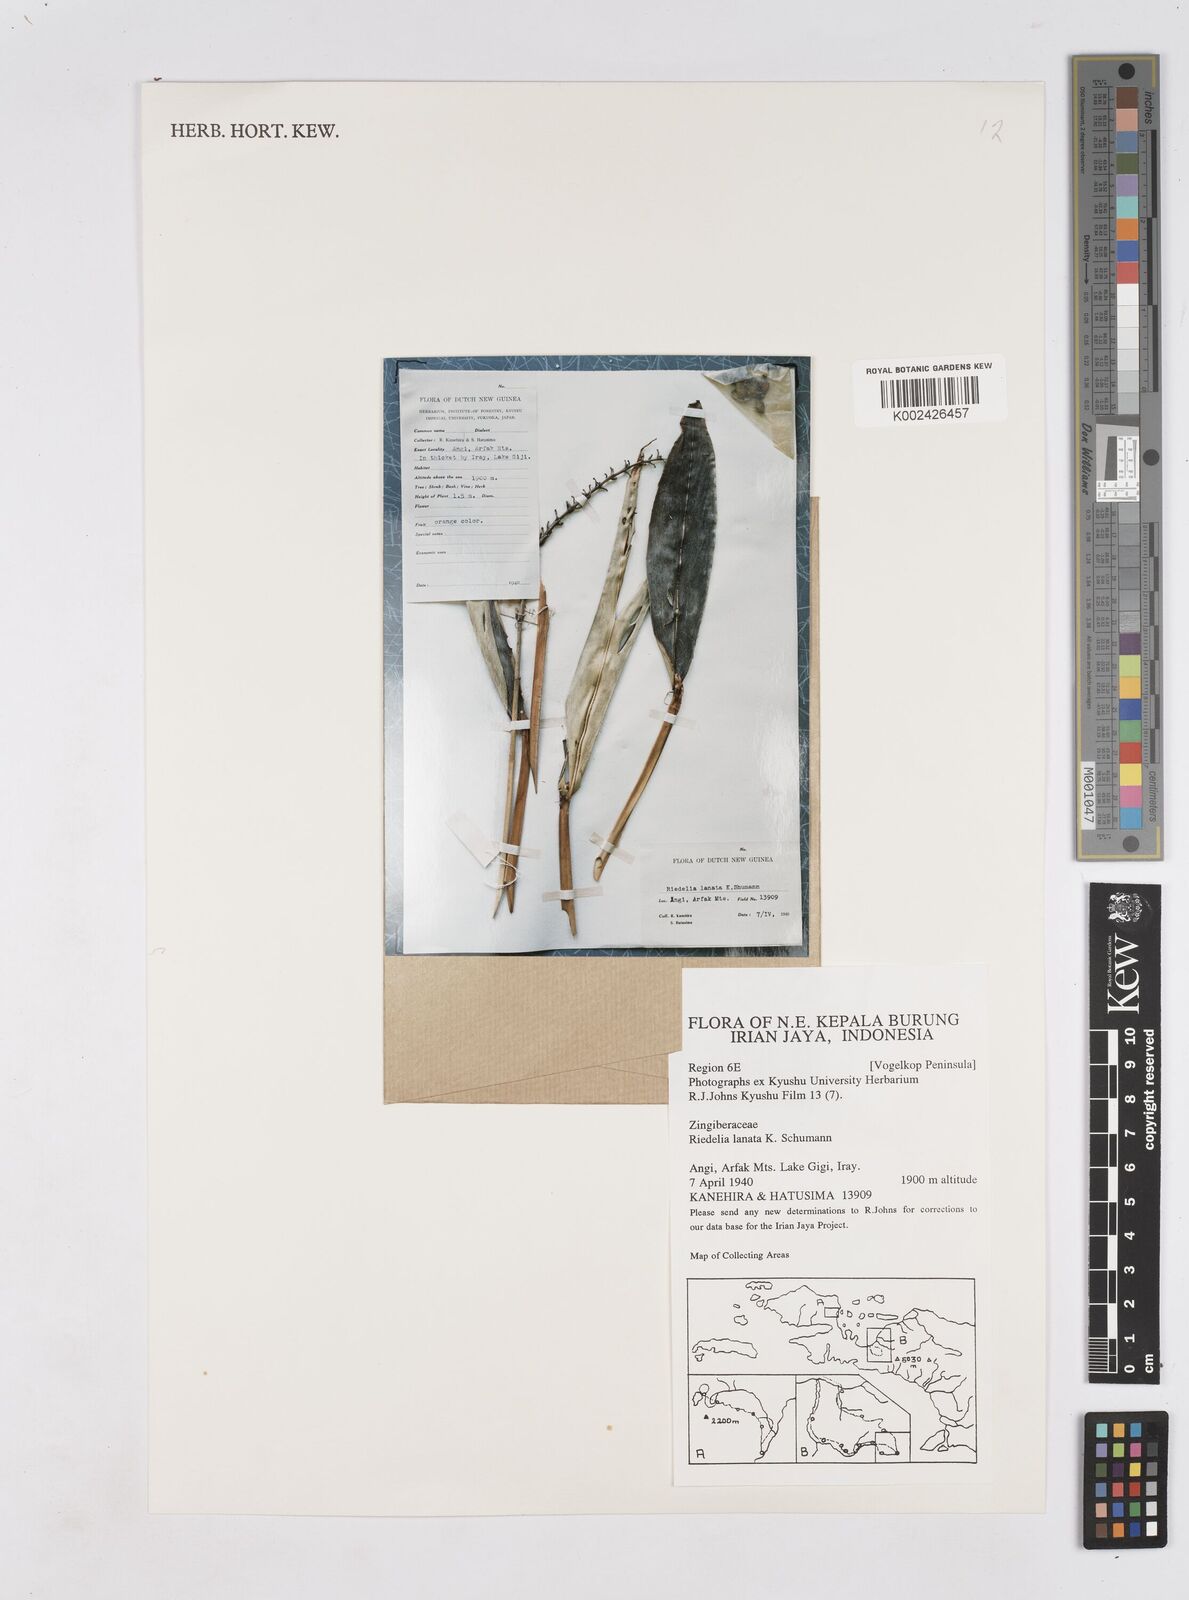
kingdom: Plantae
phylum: Tracheophyta
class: Liliopsida
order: Zingiberales
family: Zingiberaceae
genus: Riedelia
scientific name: Riedelia lanata
